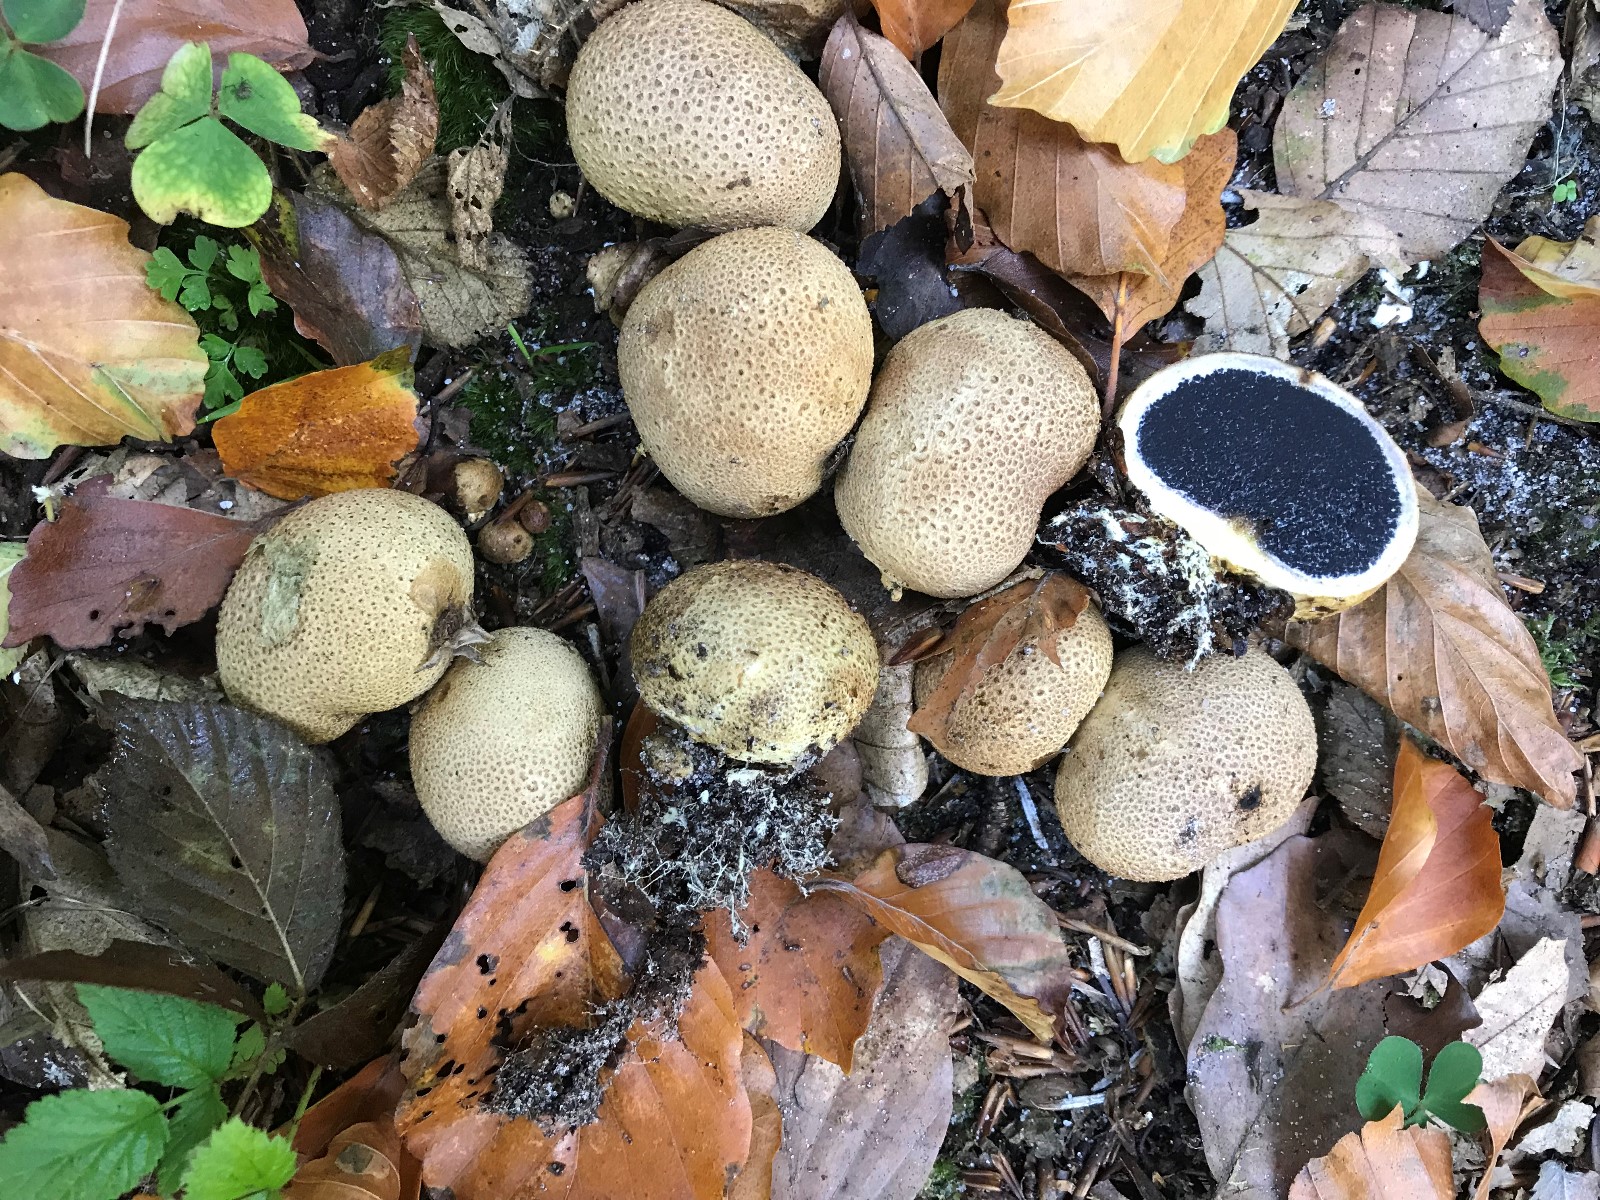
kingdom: Fungi
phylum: Basidiomycota
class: Agaricomycetes
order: Boletales
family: Sclerodermataceae
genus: Scleroderma
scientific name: Scleroderma citrinum
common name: almindelig bruskbold
